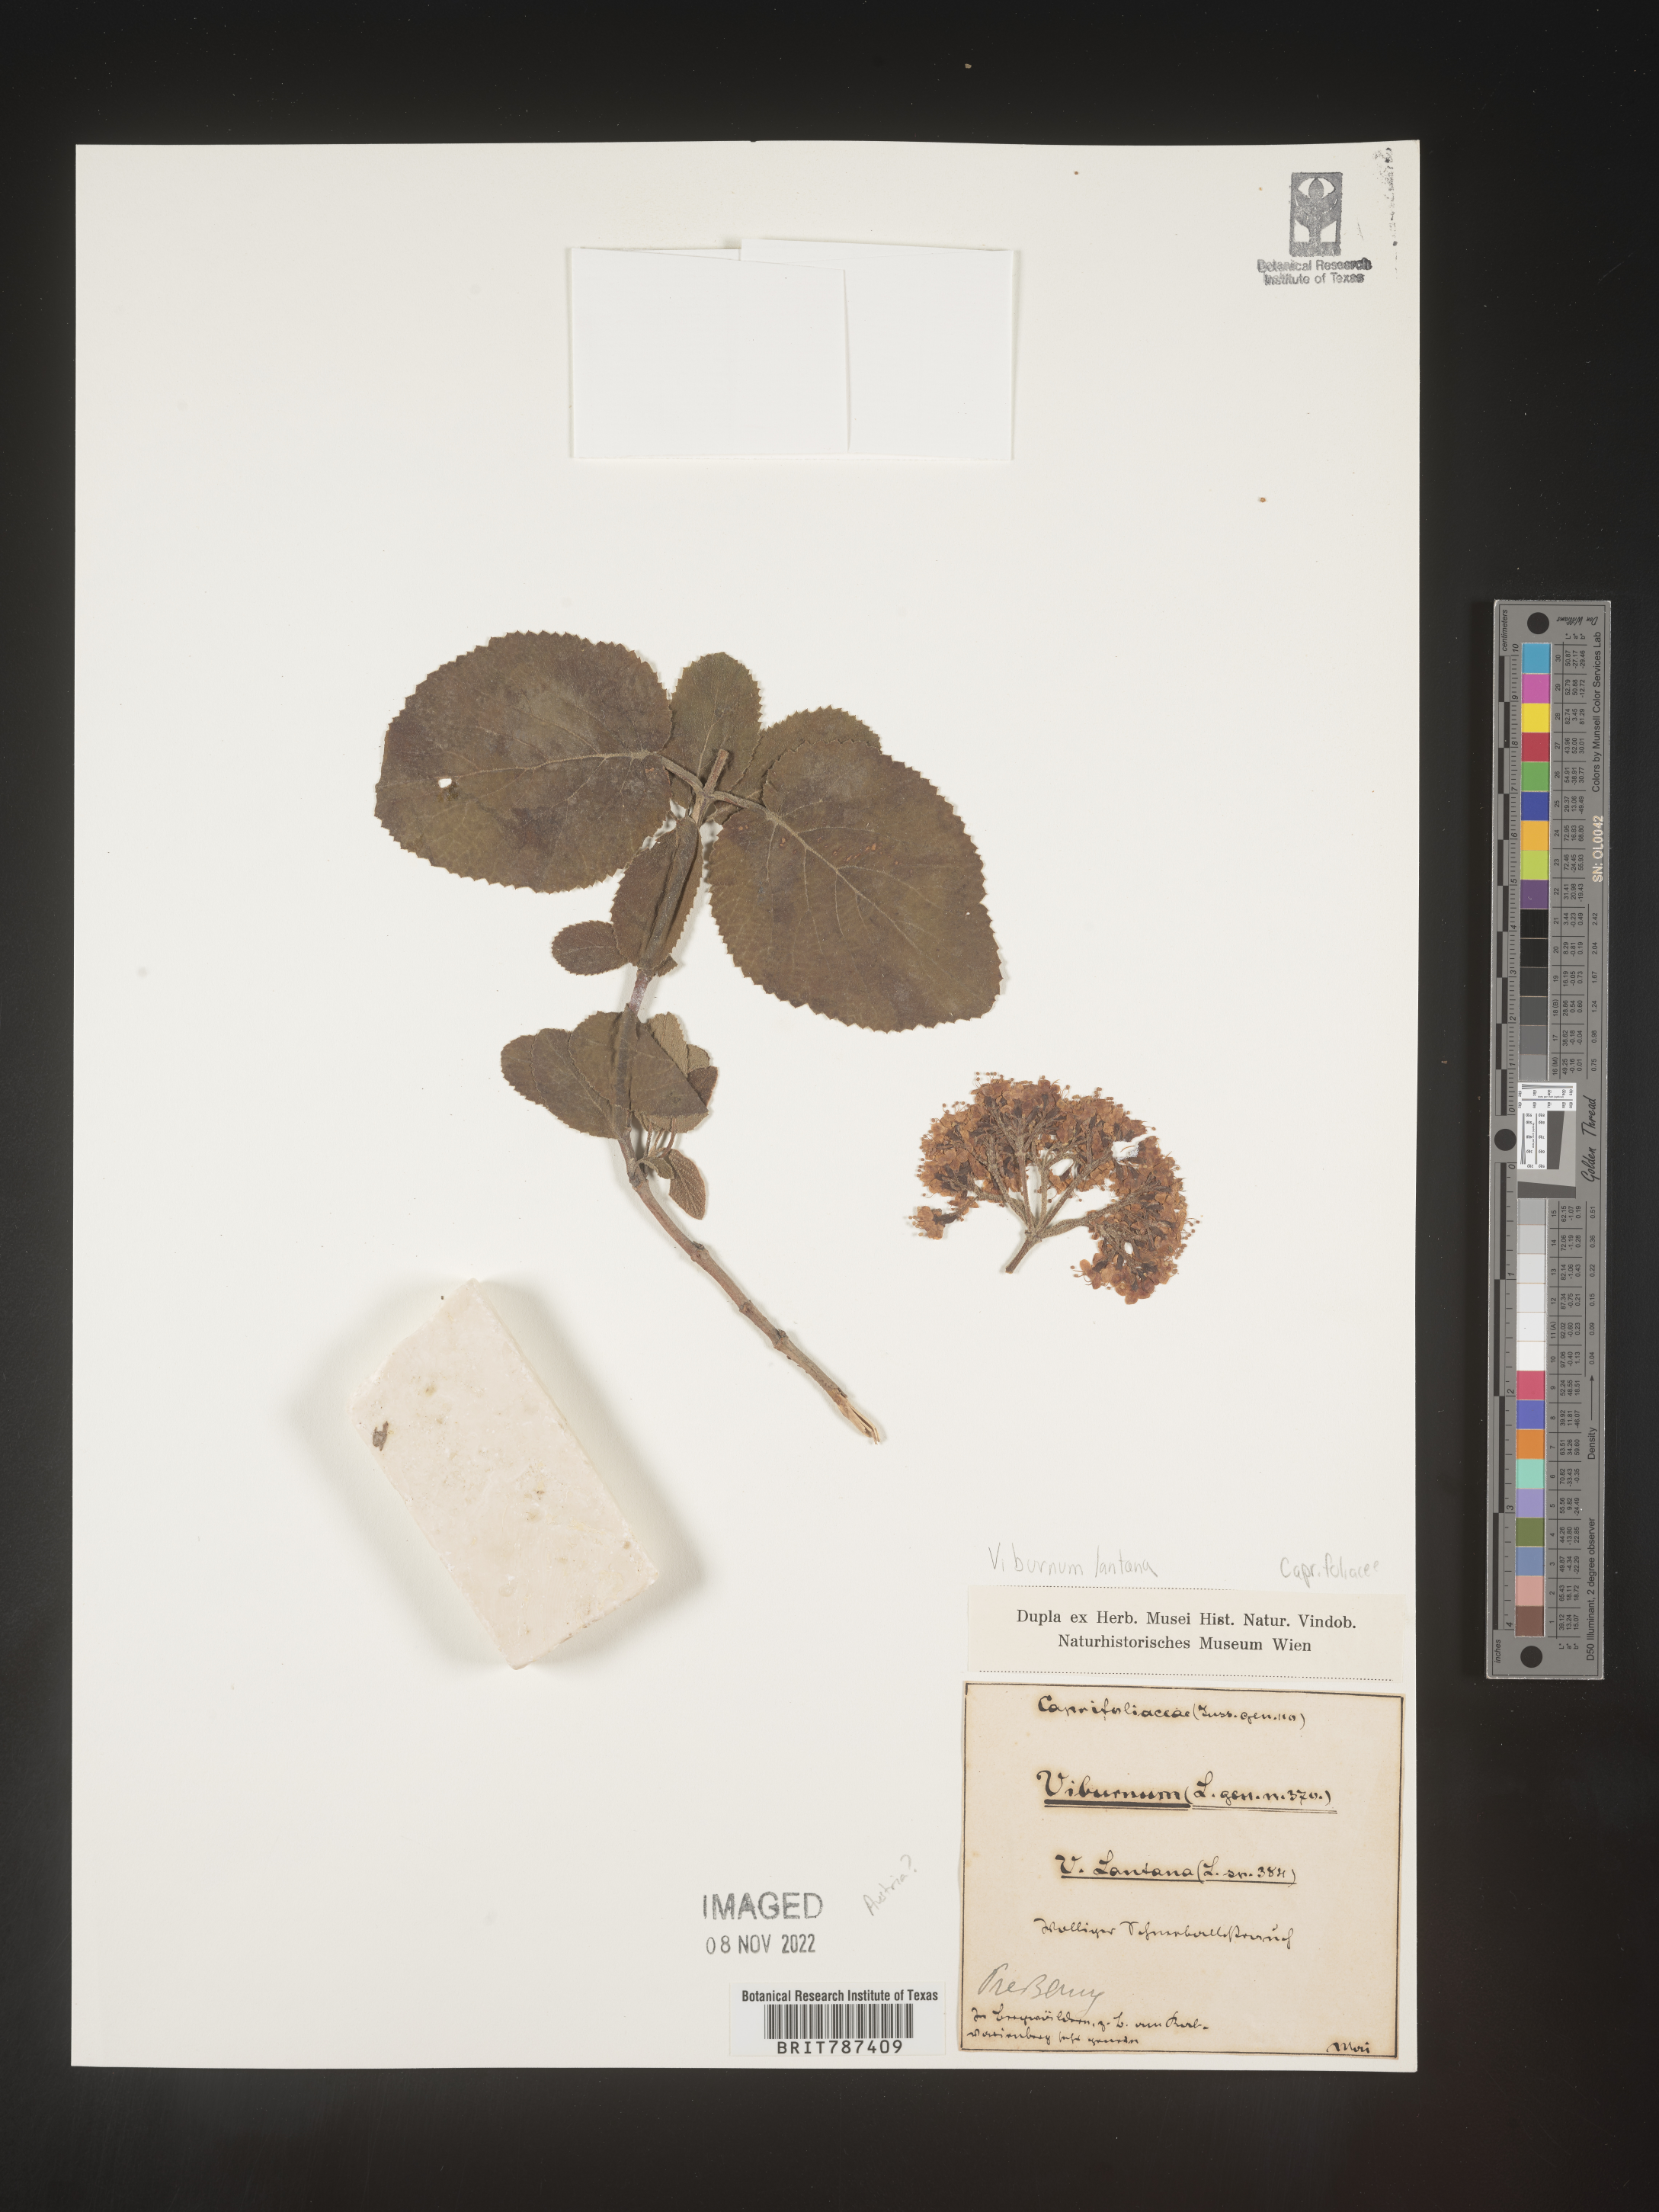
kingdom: Plantae
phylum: Tracheophyta
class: Magnoliopsida
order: Dipsacales
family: Viburnaceae
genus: Viburnum
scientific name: Viburnum
